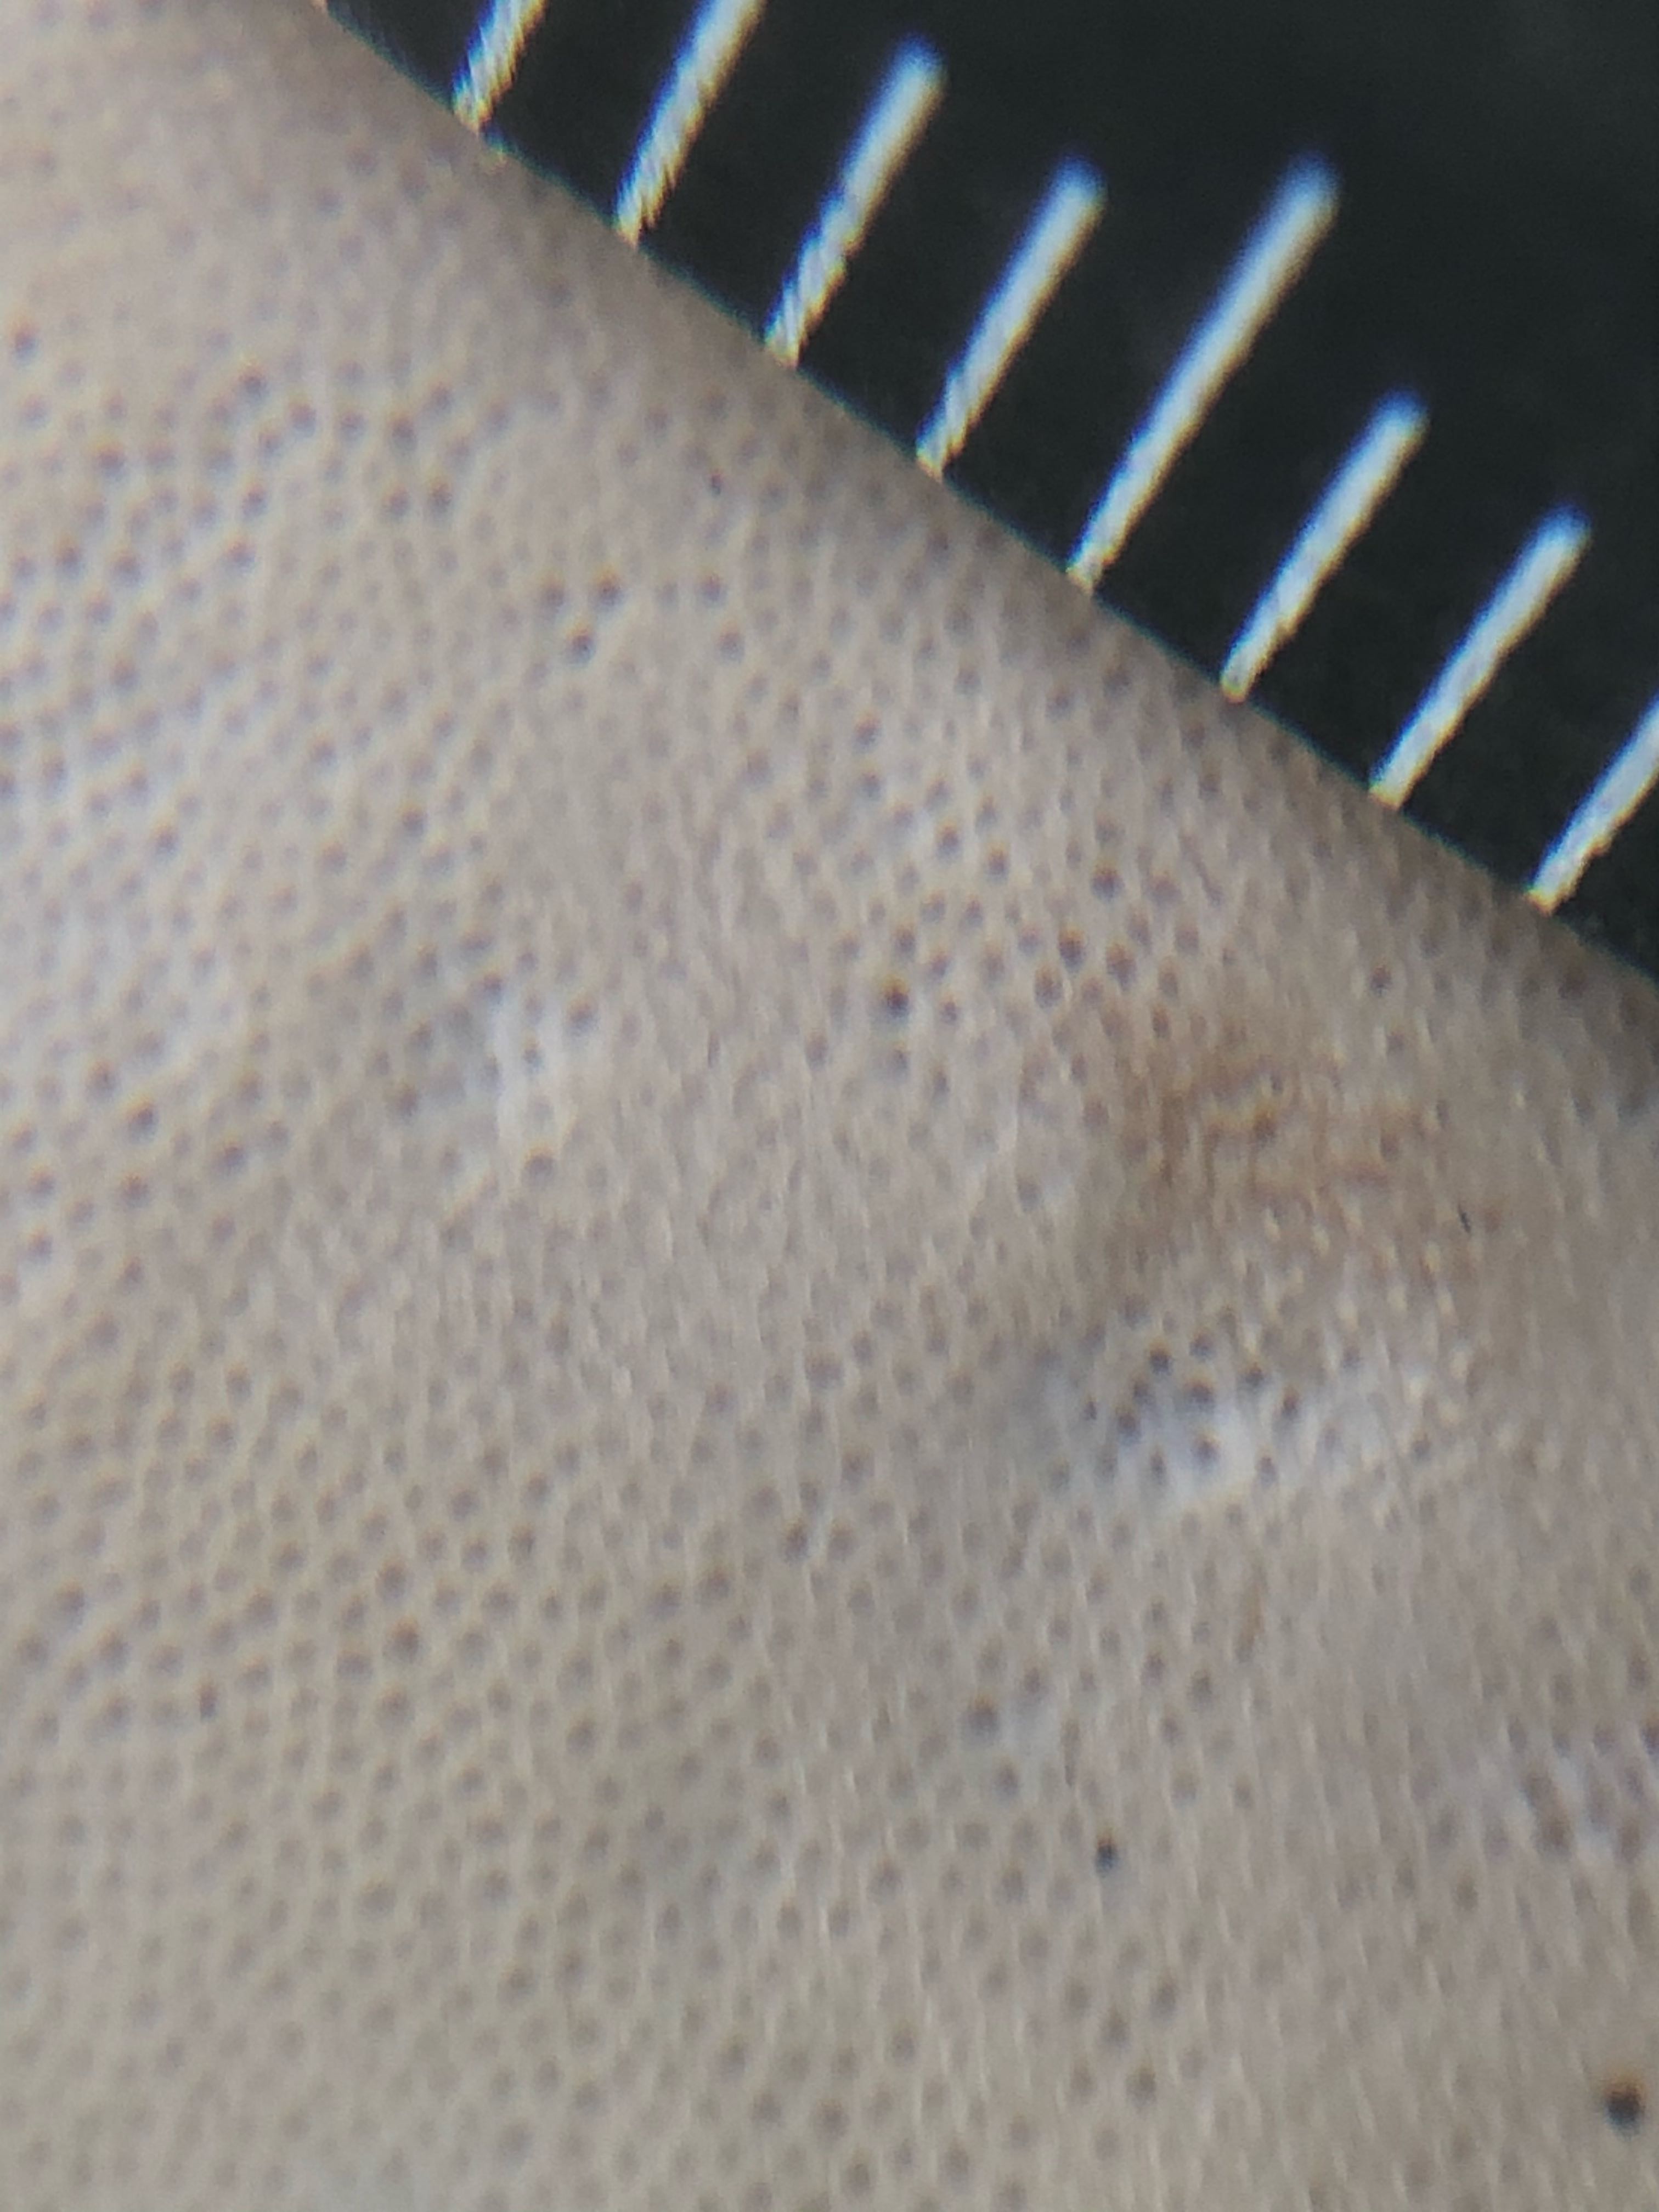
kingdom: Fungi
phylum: Basidiomycota
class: Agaricomycetes
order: Polyporales
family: Ischnodermataceae
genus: Ischnoderma
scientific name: Ischnoderma resinosum
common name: løv-tjæreporesvamp
